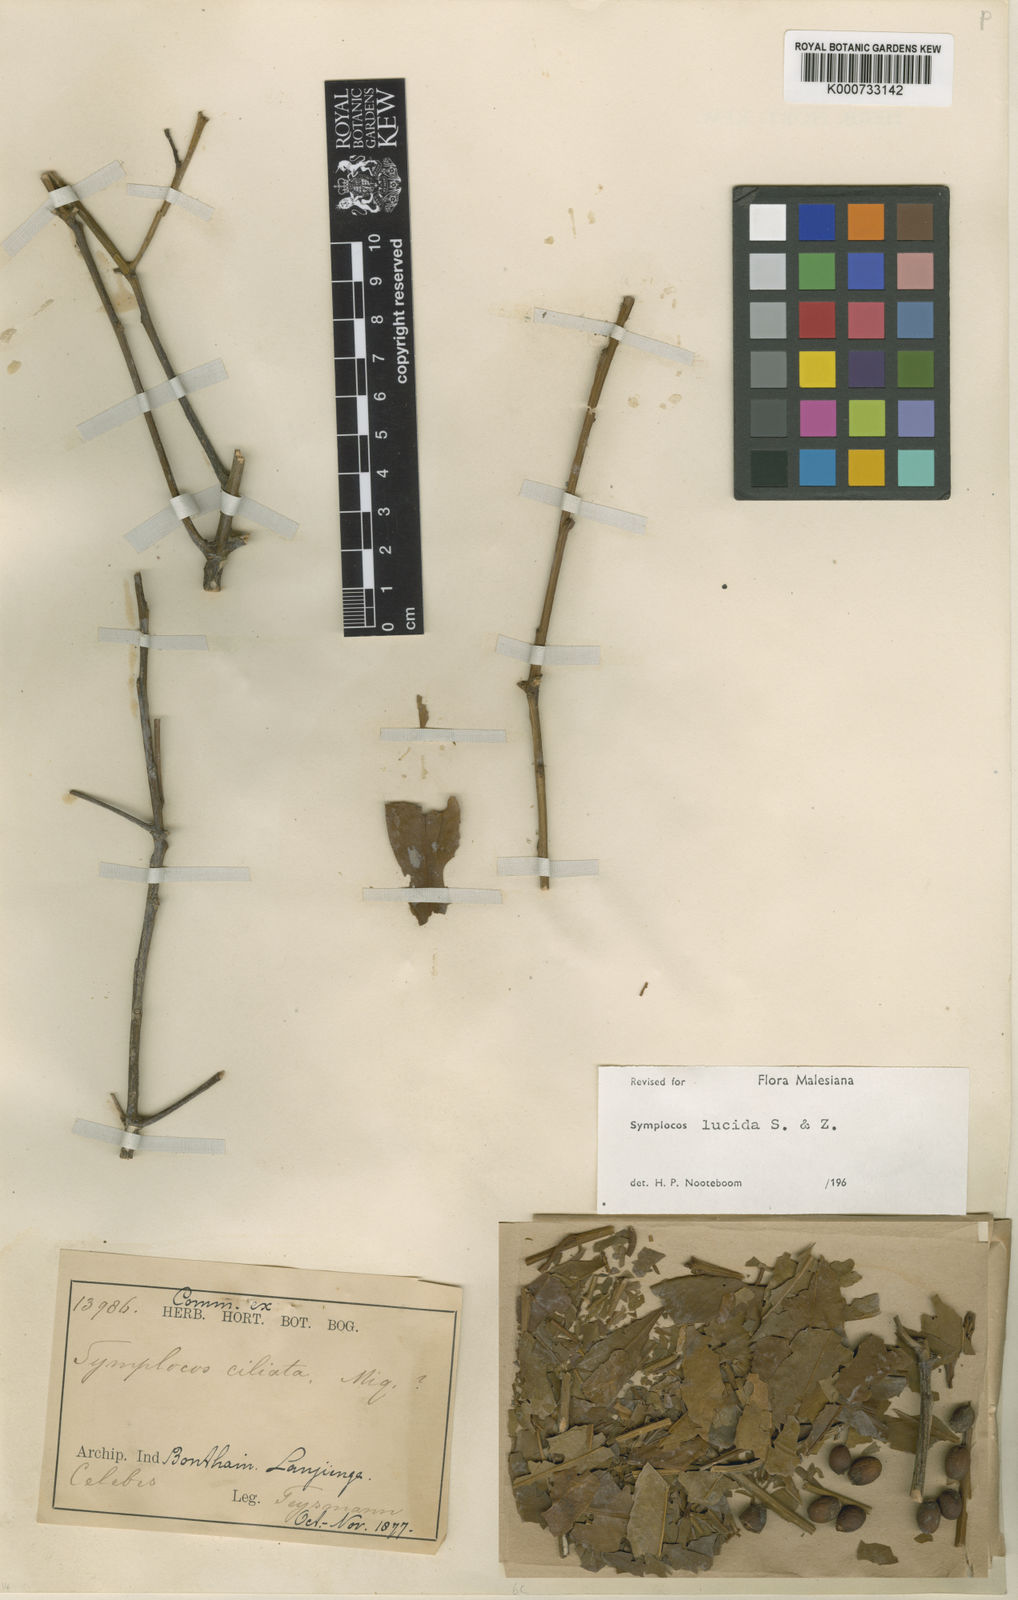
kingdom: Plantae
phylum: Tracheophyta
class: Magnoliopsida
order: Ericales
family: Symplocaceae
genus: Symplocos
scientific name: Symplocos
